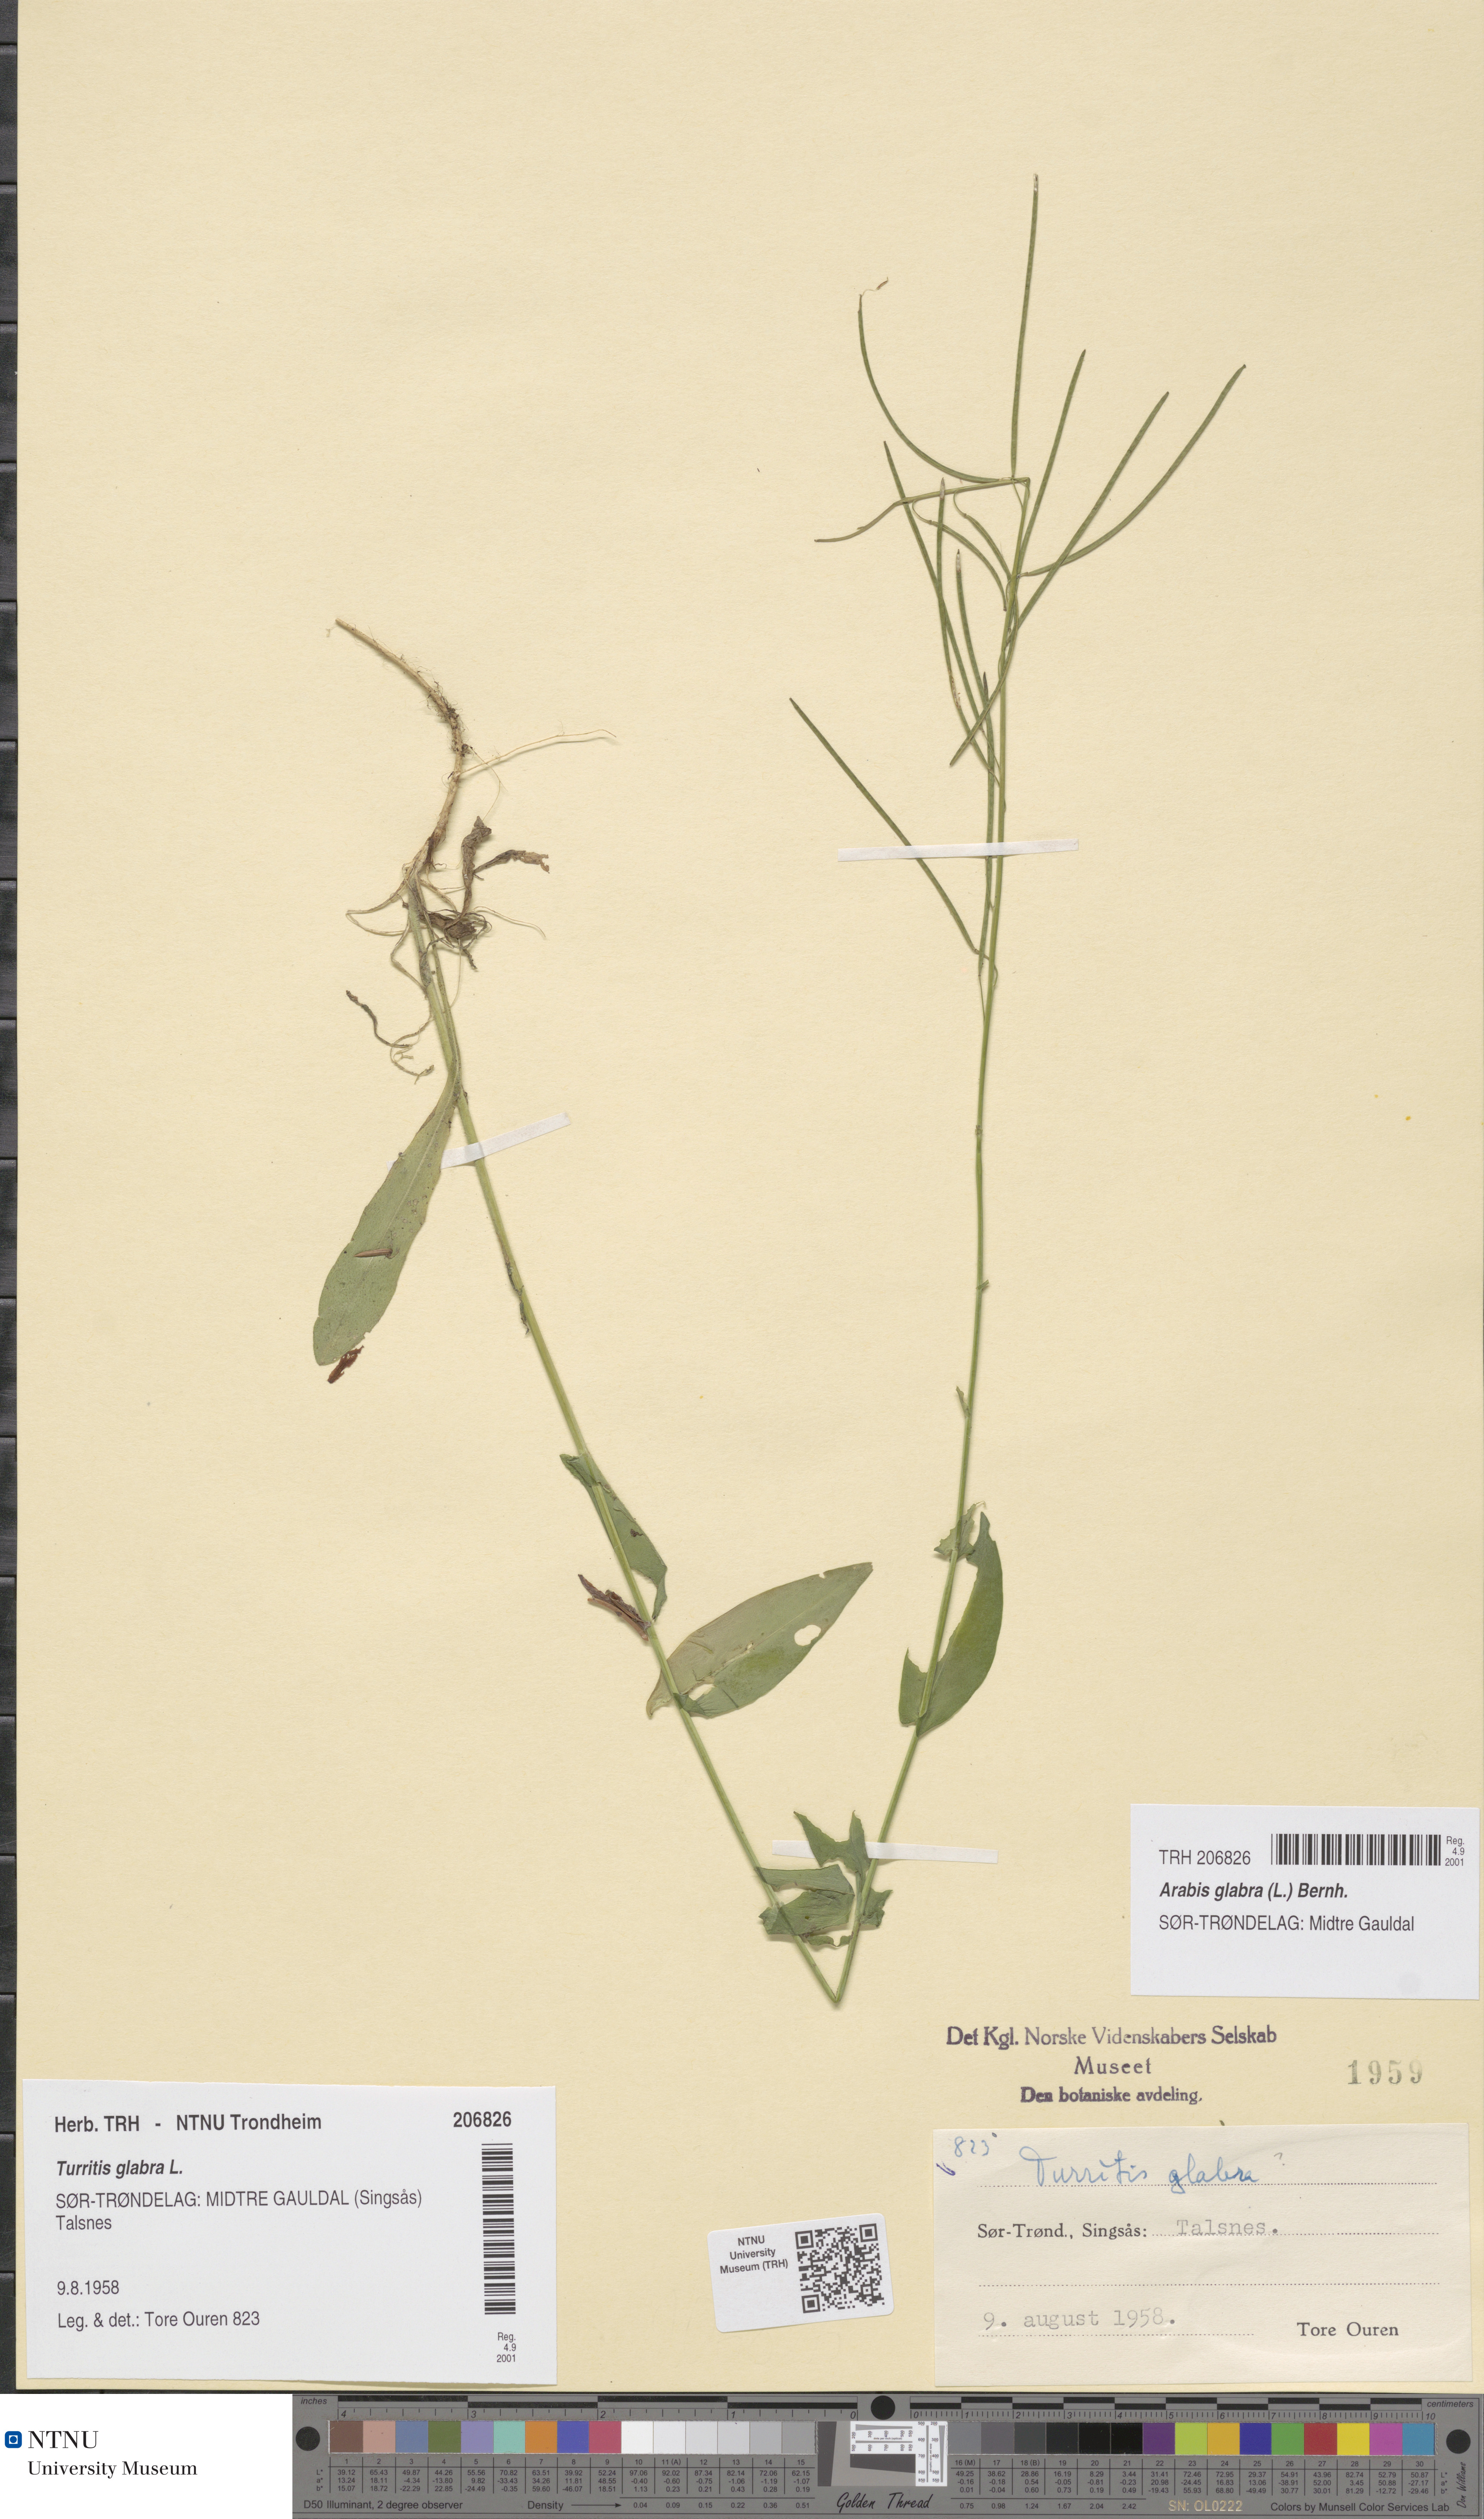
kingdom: Plantae
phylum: Tracheophyta
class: Magnoliopsida
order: Brassicales
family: Brassicaceae
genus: Turritis
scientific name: Turritis glabra
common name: Tower rockcress
